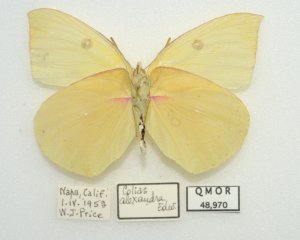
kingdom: Animalia
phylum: Arthropoda
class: Insecta
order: Lepidoptera
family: Pieridae
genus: Colias
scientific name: Colias alexandra
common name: Queen Alexandra's Sulphur
